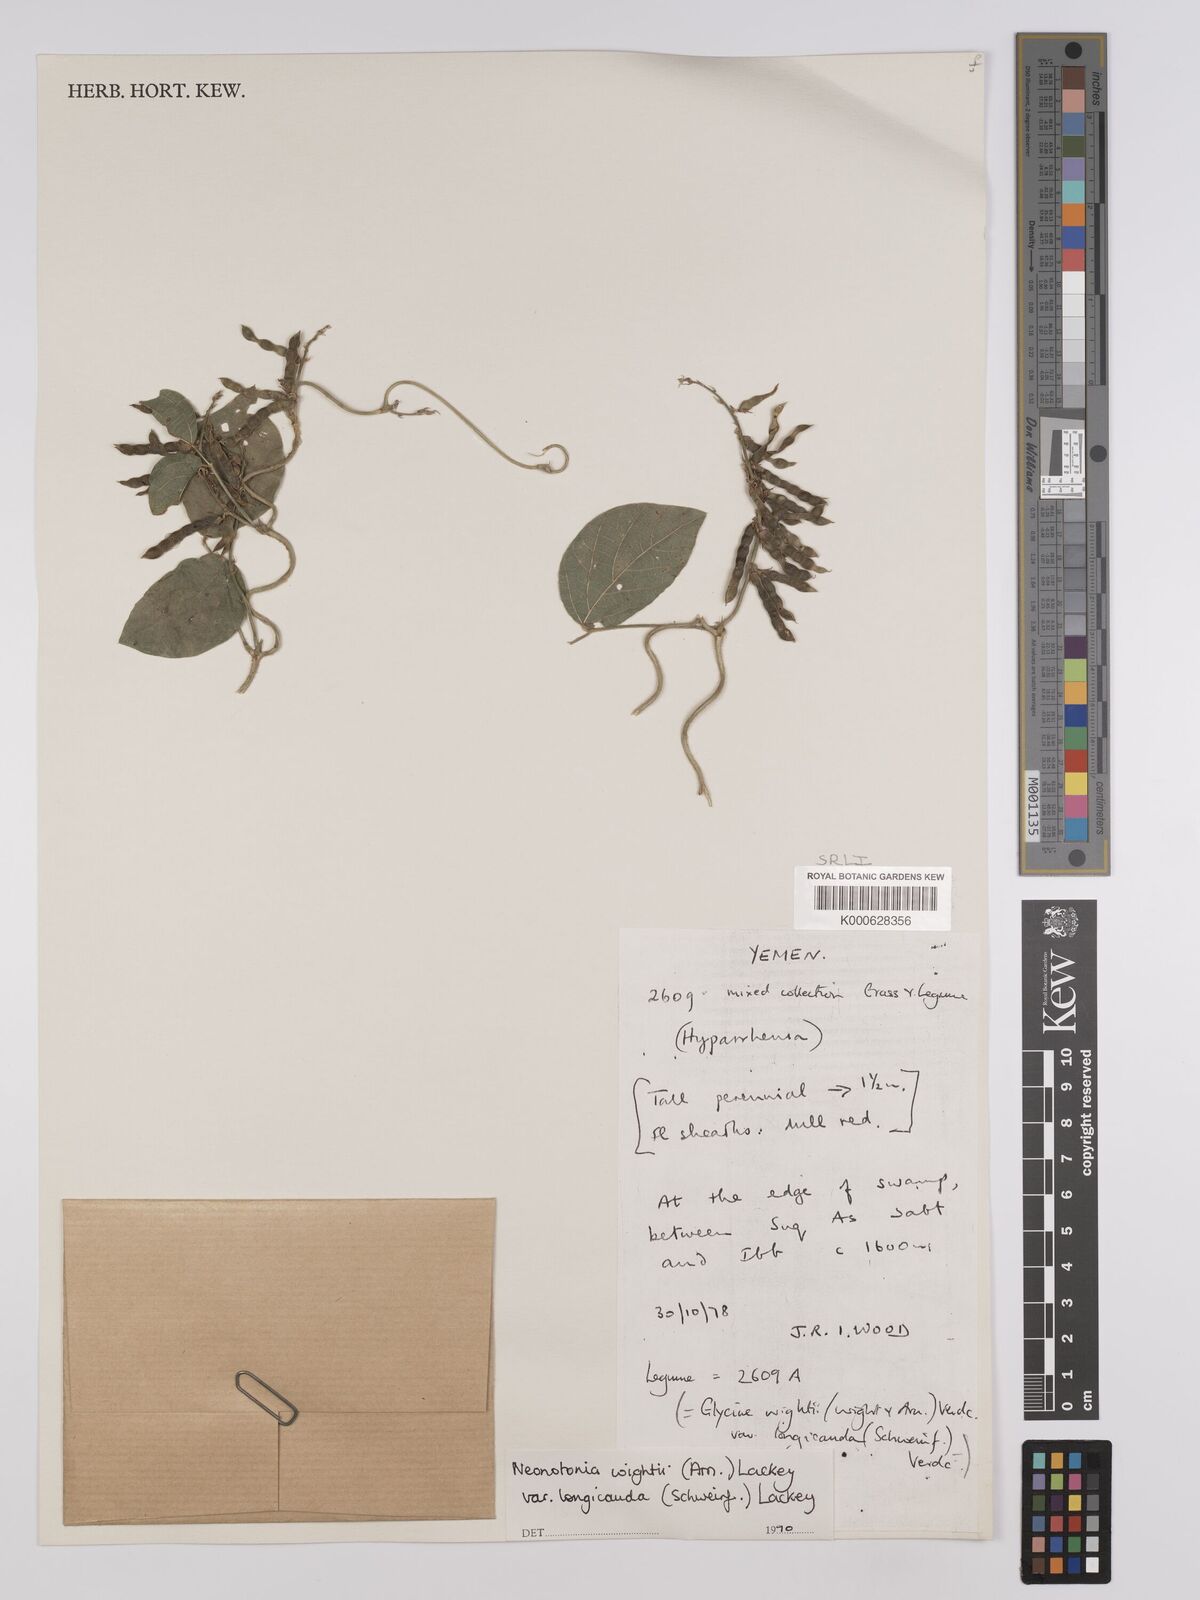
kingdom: Plantae
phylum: Tracheophyta
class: Magnoliopsida
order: Fabales
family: Fabaceae
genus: Neonotonia
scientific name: Neonotonia wightii
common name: Perennial soybean
